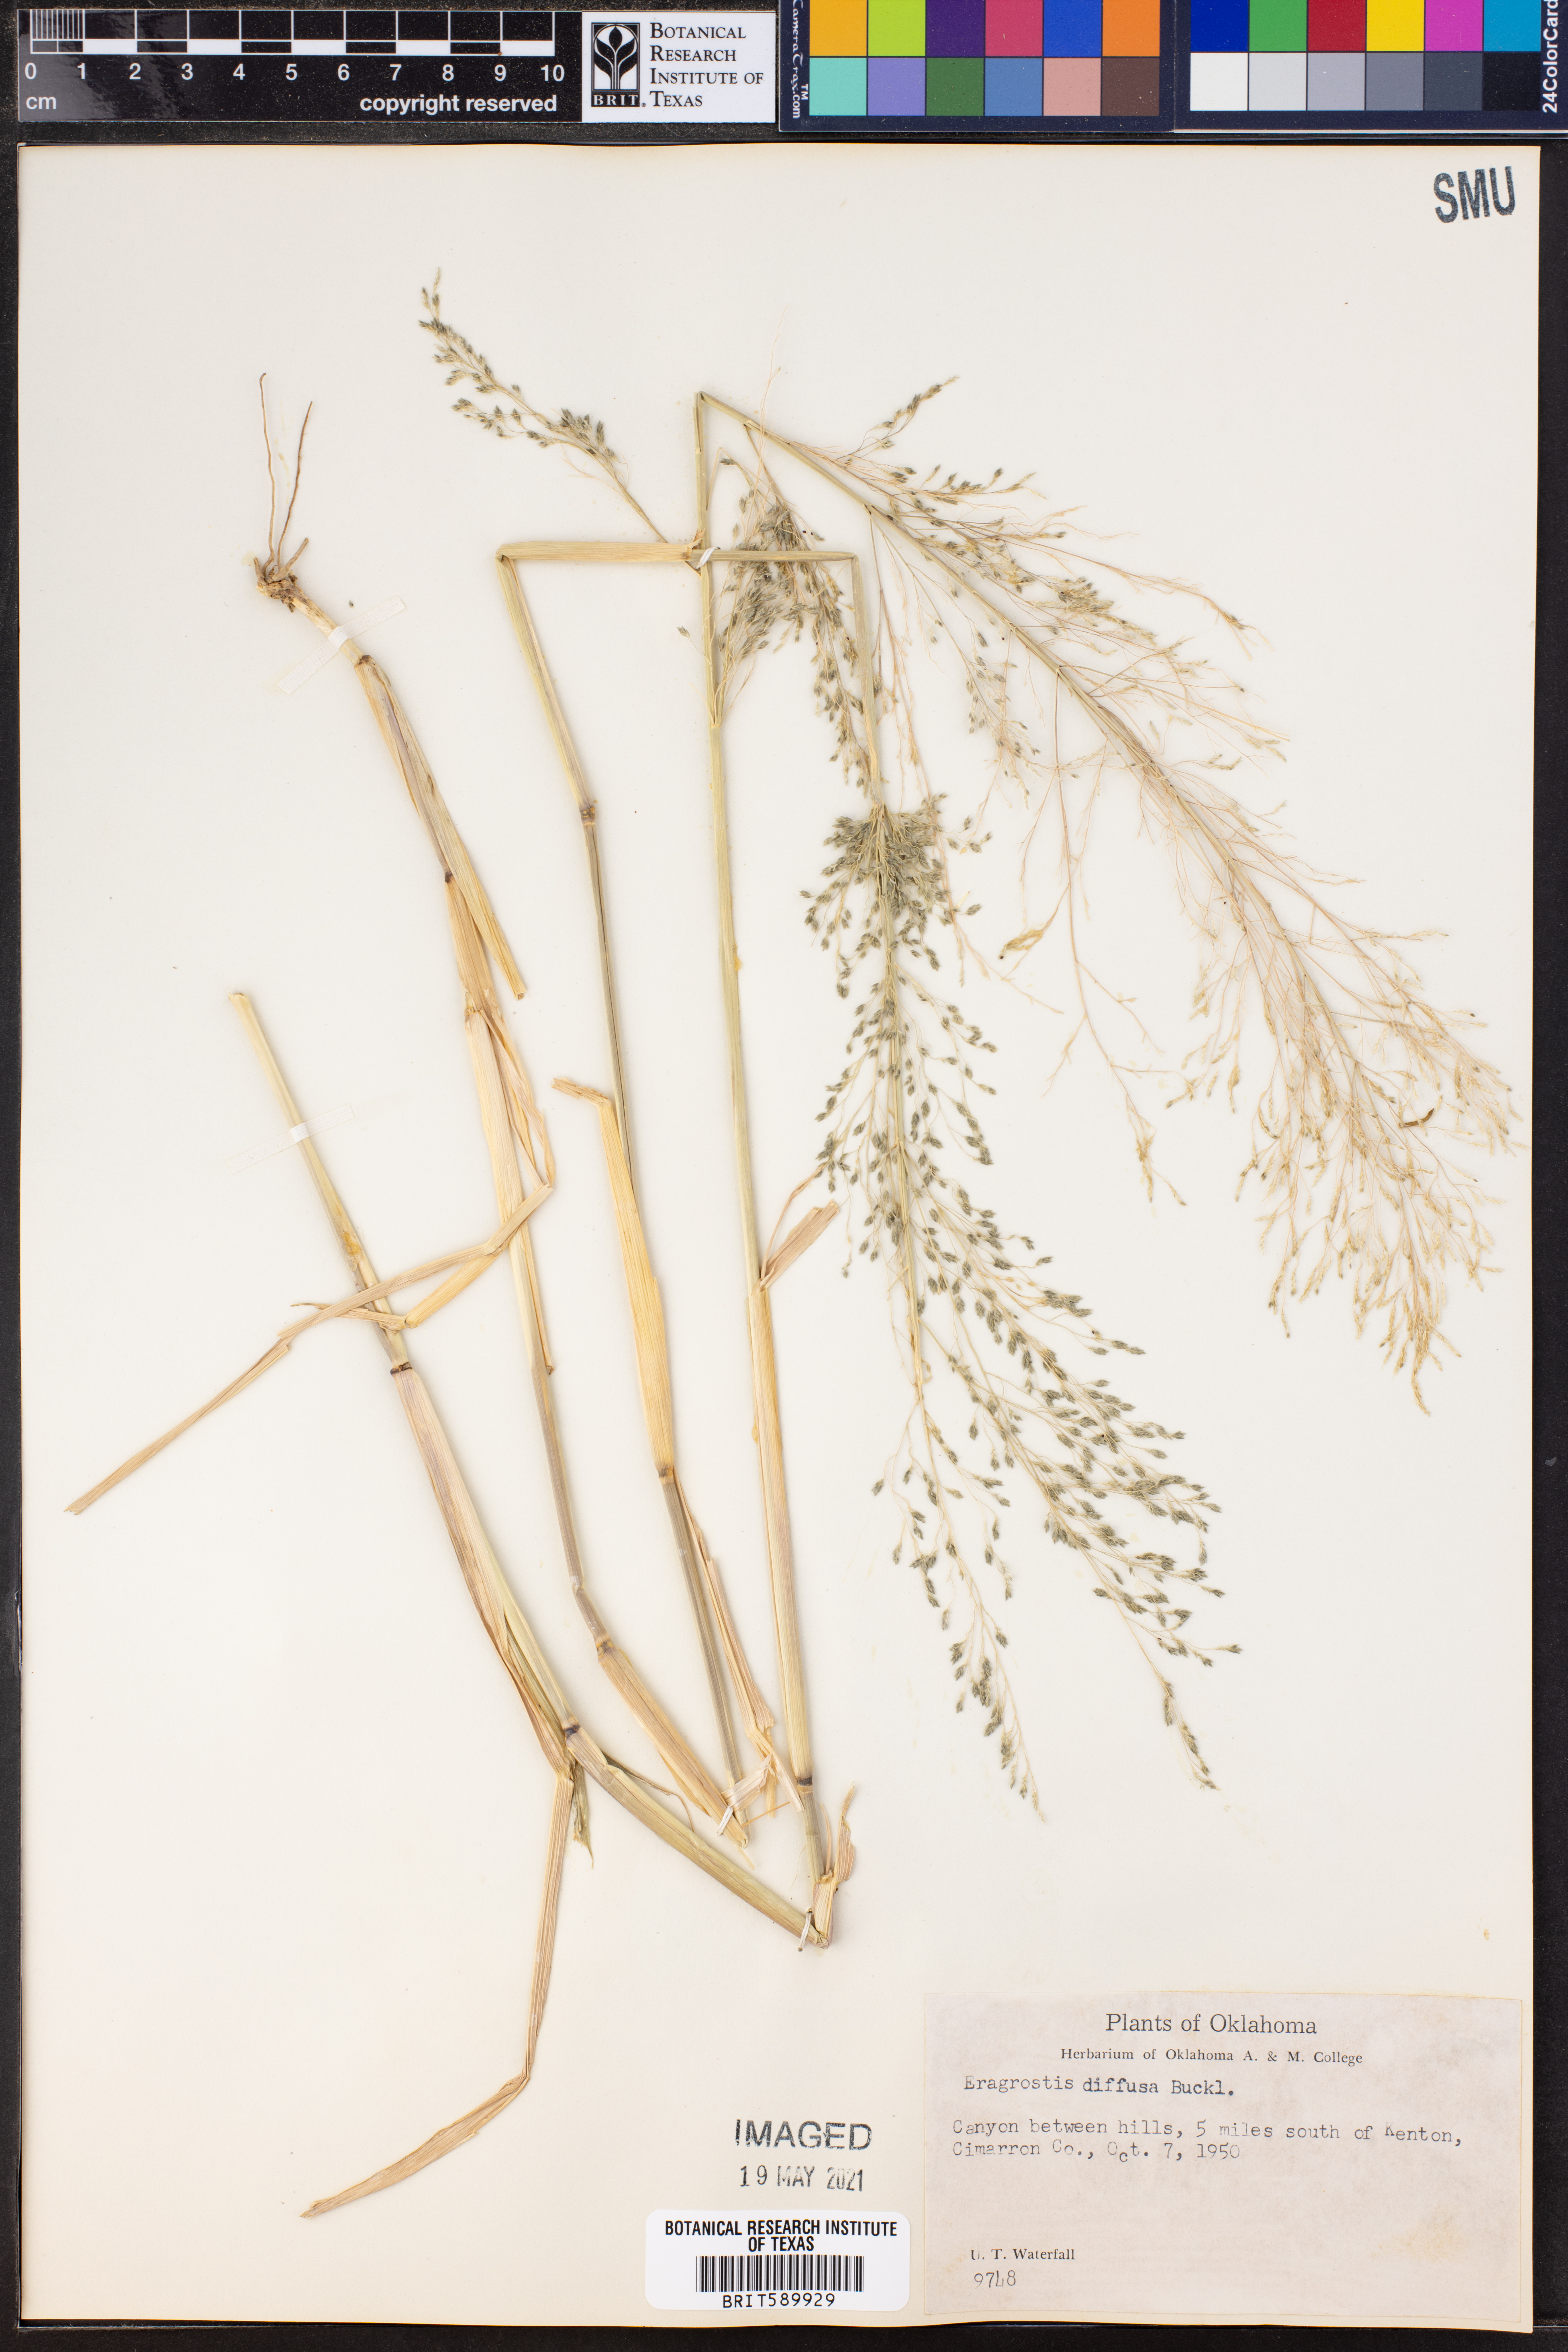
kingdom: Plantae
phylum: Tracheophyta
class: Liliopsida
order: Poales
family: Poaceae
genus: Eragrostis
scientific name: Eragrostis pectinacea
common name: Tufted lovegrass
